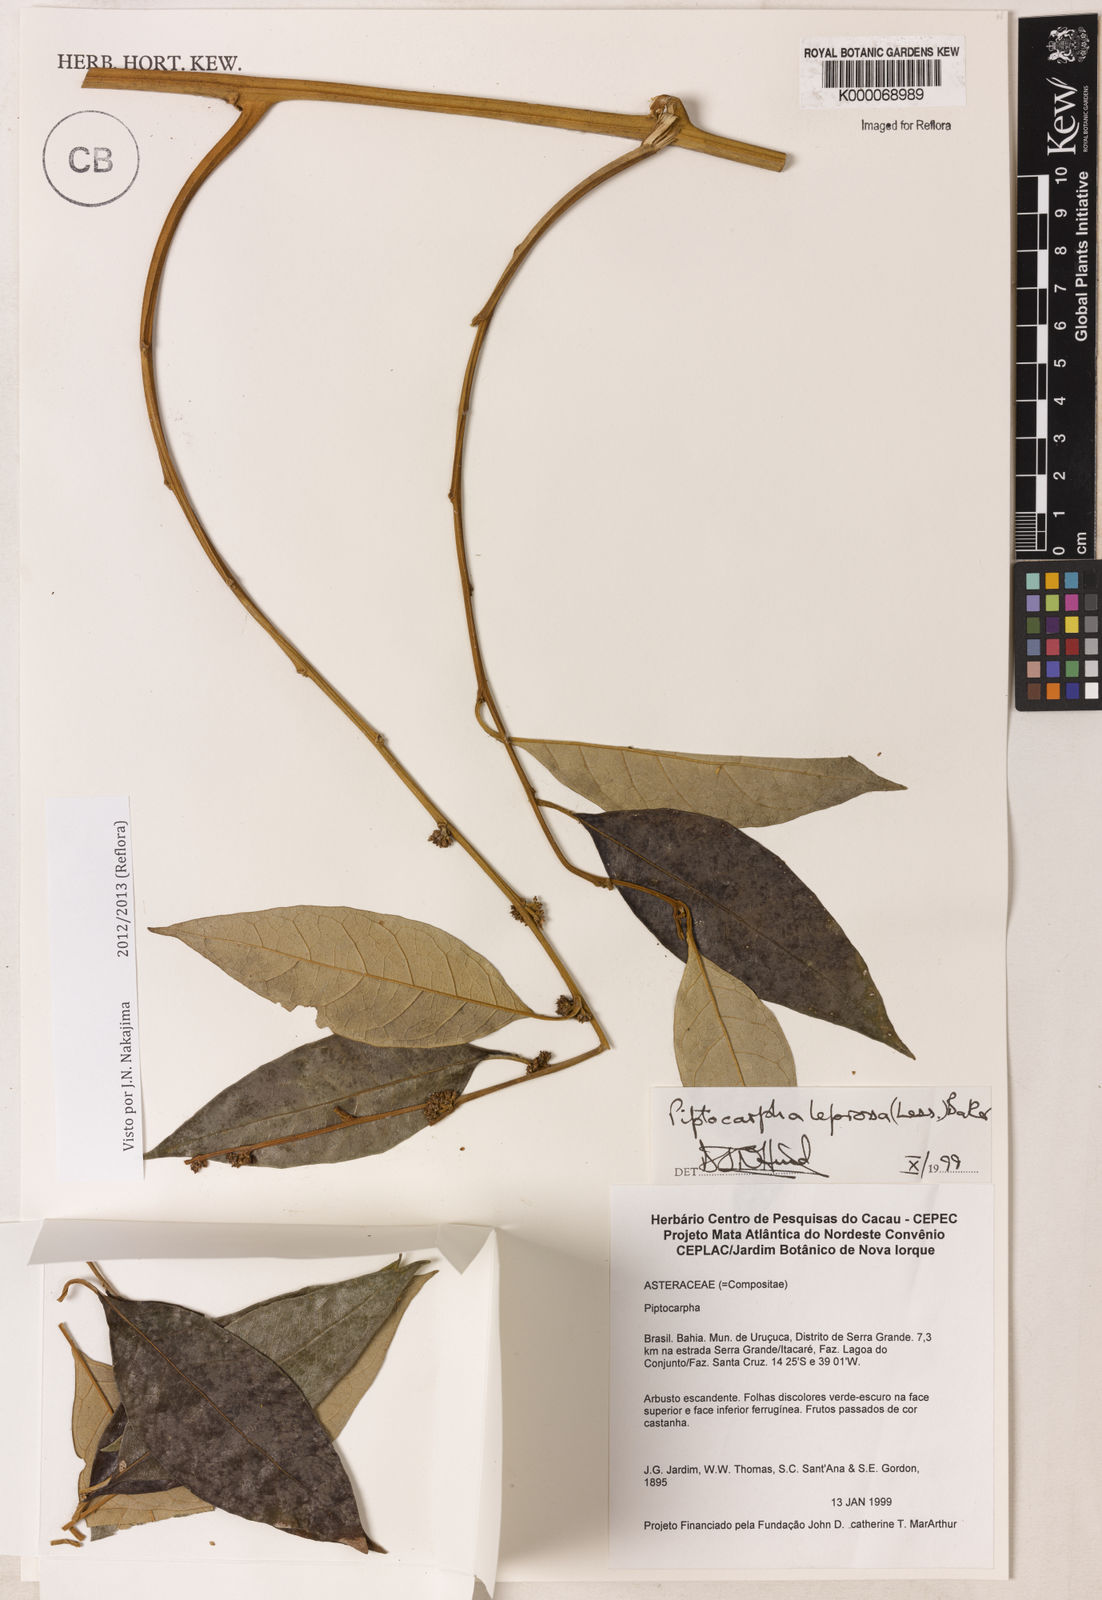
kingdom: Plantae
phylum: Tracheophyta
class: Magnoliopsida
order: Asterales
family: Asteraceae
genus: Piptocarpha
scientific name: Piptocarpha leprosa
